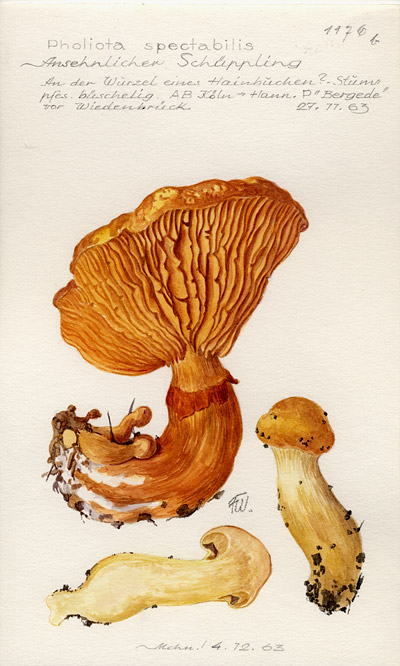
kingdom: Fungi
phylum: Basidiomycota
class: Agaricomycetes
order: Agaricales
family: Hymenogastraceae
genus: Gymnopilus
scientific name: Gymnopilus spectabilis
